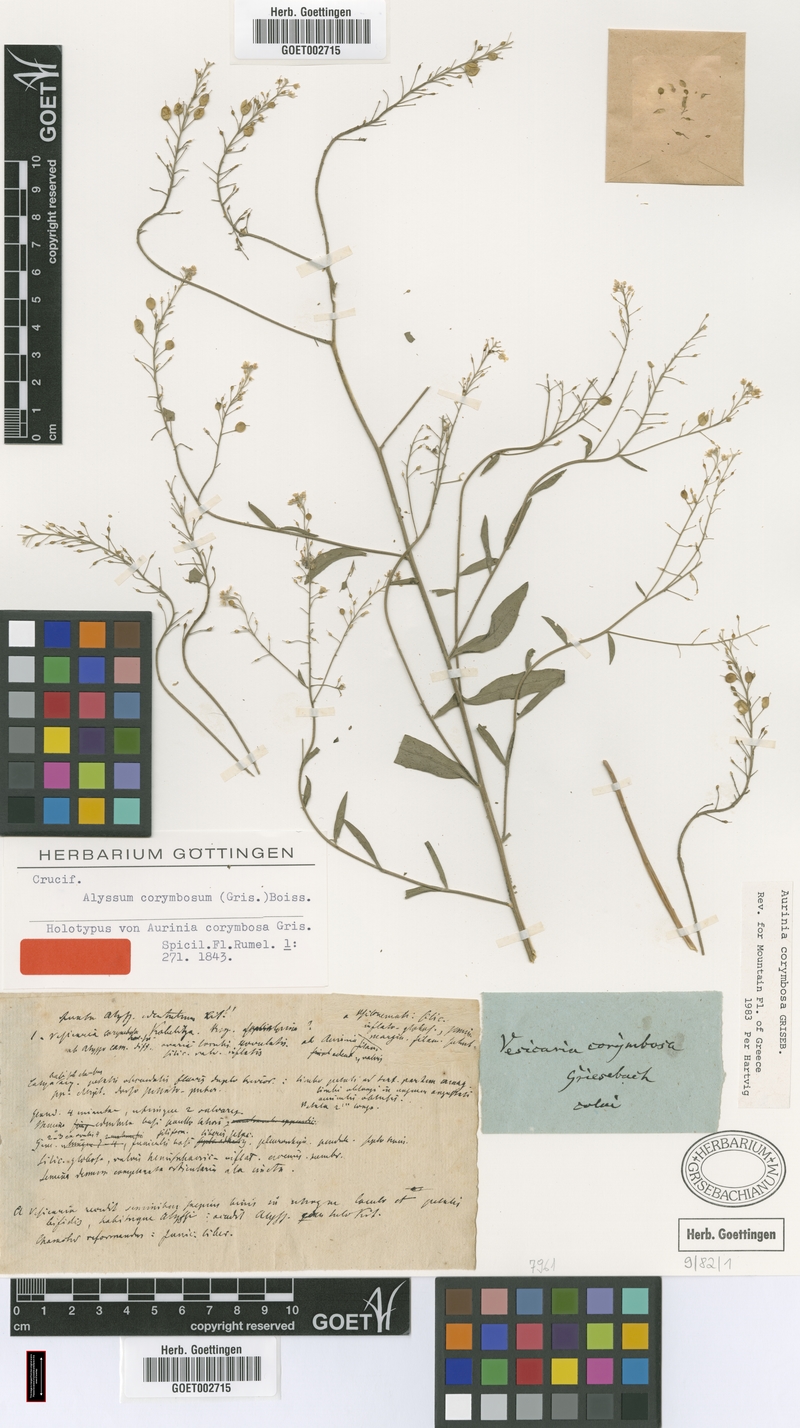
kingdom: Plantae
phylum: Tracheophyta
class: Magnoliopsida
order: Brassicales
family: Brassicaceae
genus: Aurinia
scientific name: Aurinia corymbosa
